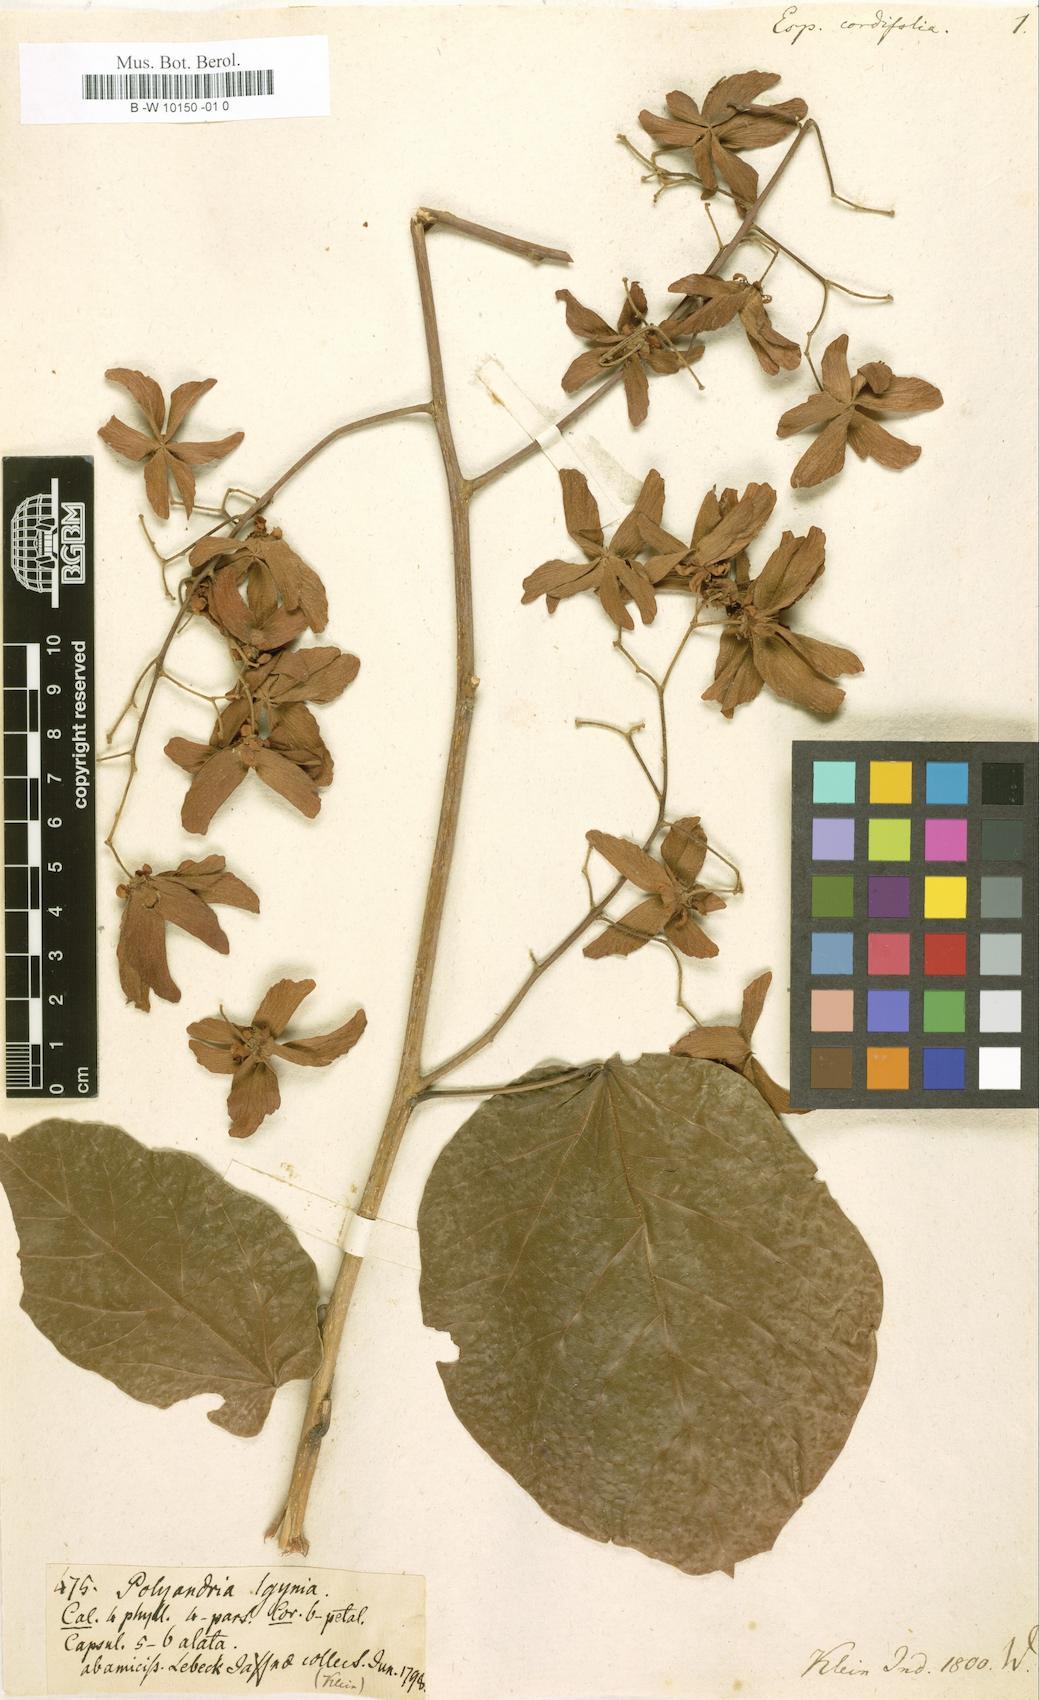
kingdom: Plantae
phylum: Tracheophyta
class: Magnoliopsida
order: Malvales
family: Malvaceae
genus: Berrya
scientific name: Berrya cordifolia
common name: Trincomalee
